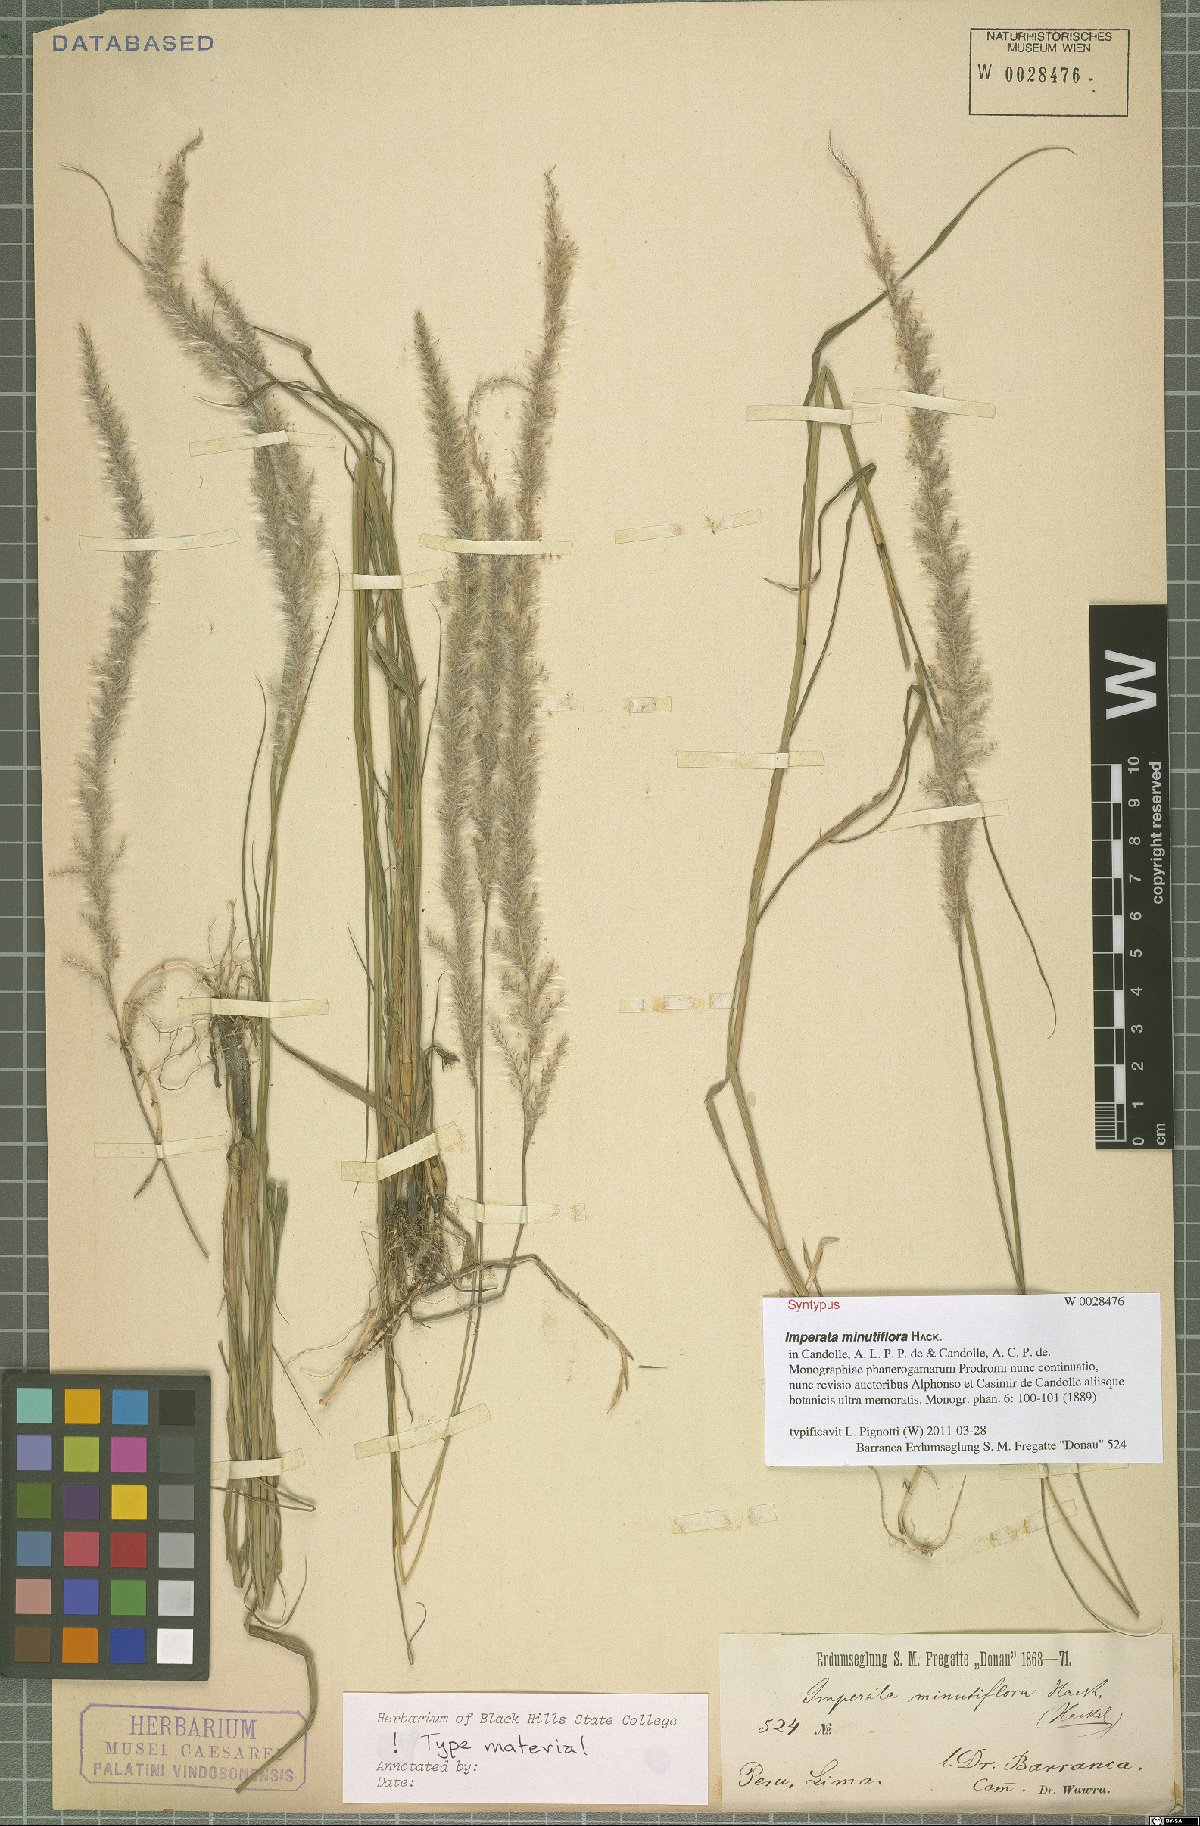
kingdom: Plantae
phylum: Tracheophyta
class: Liliopsida
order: Poales
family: Poaceae
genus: Imperata
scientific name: Imperata minutiflora
